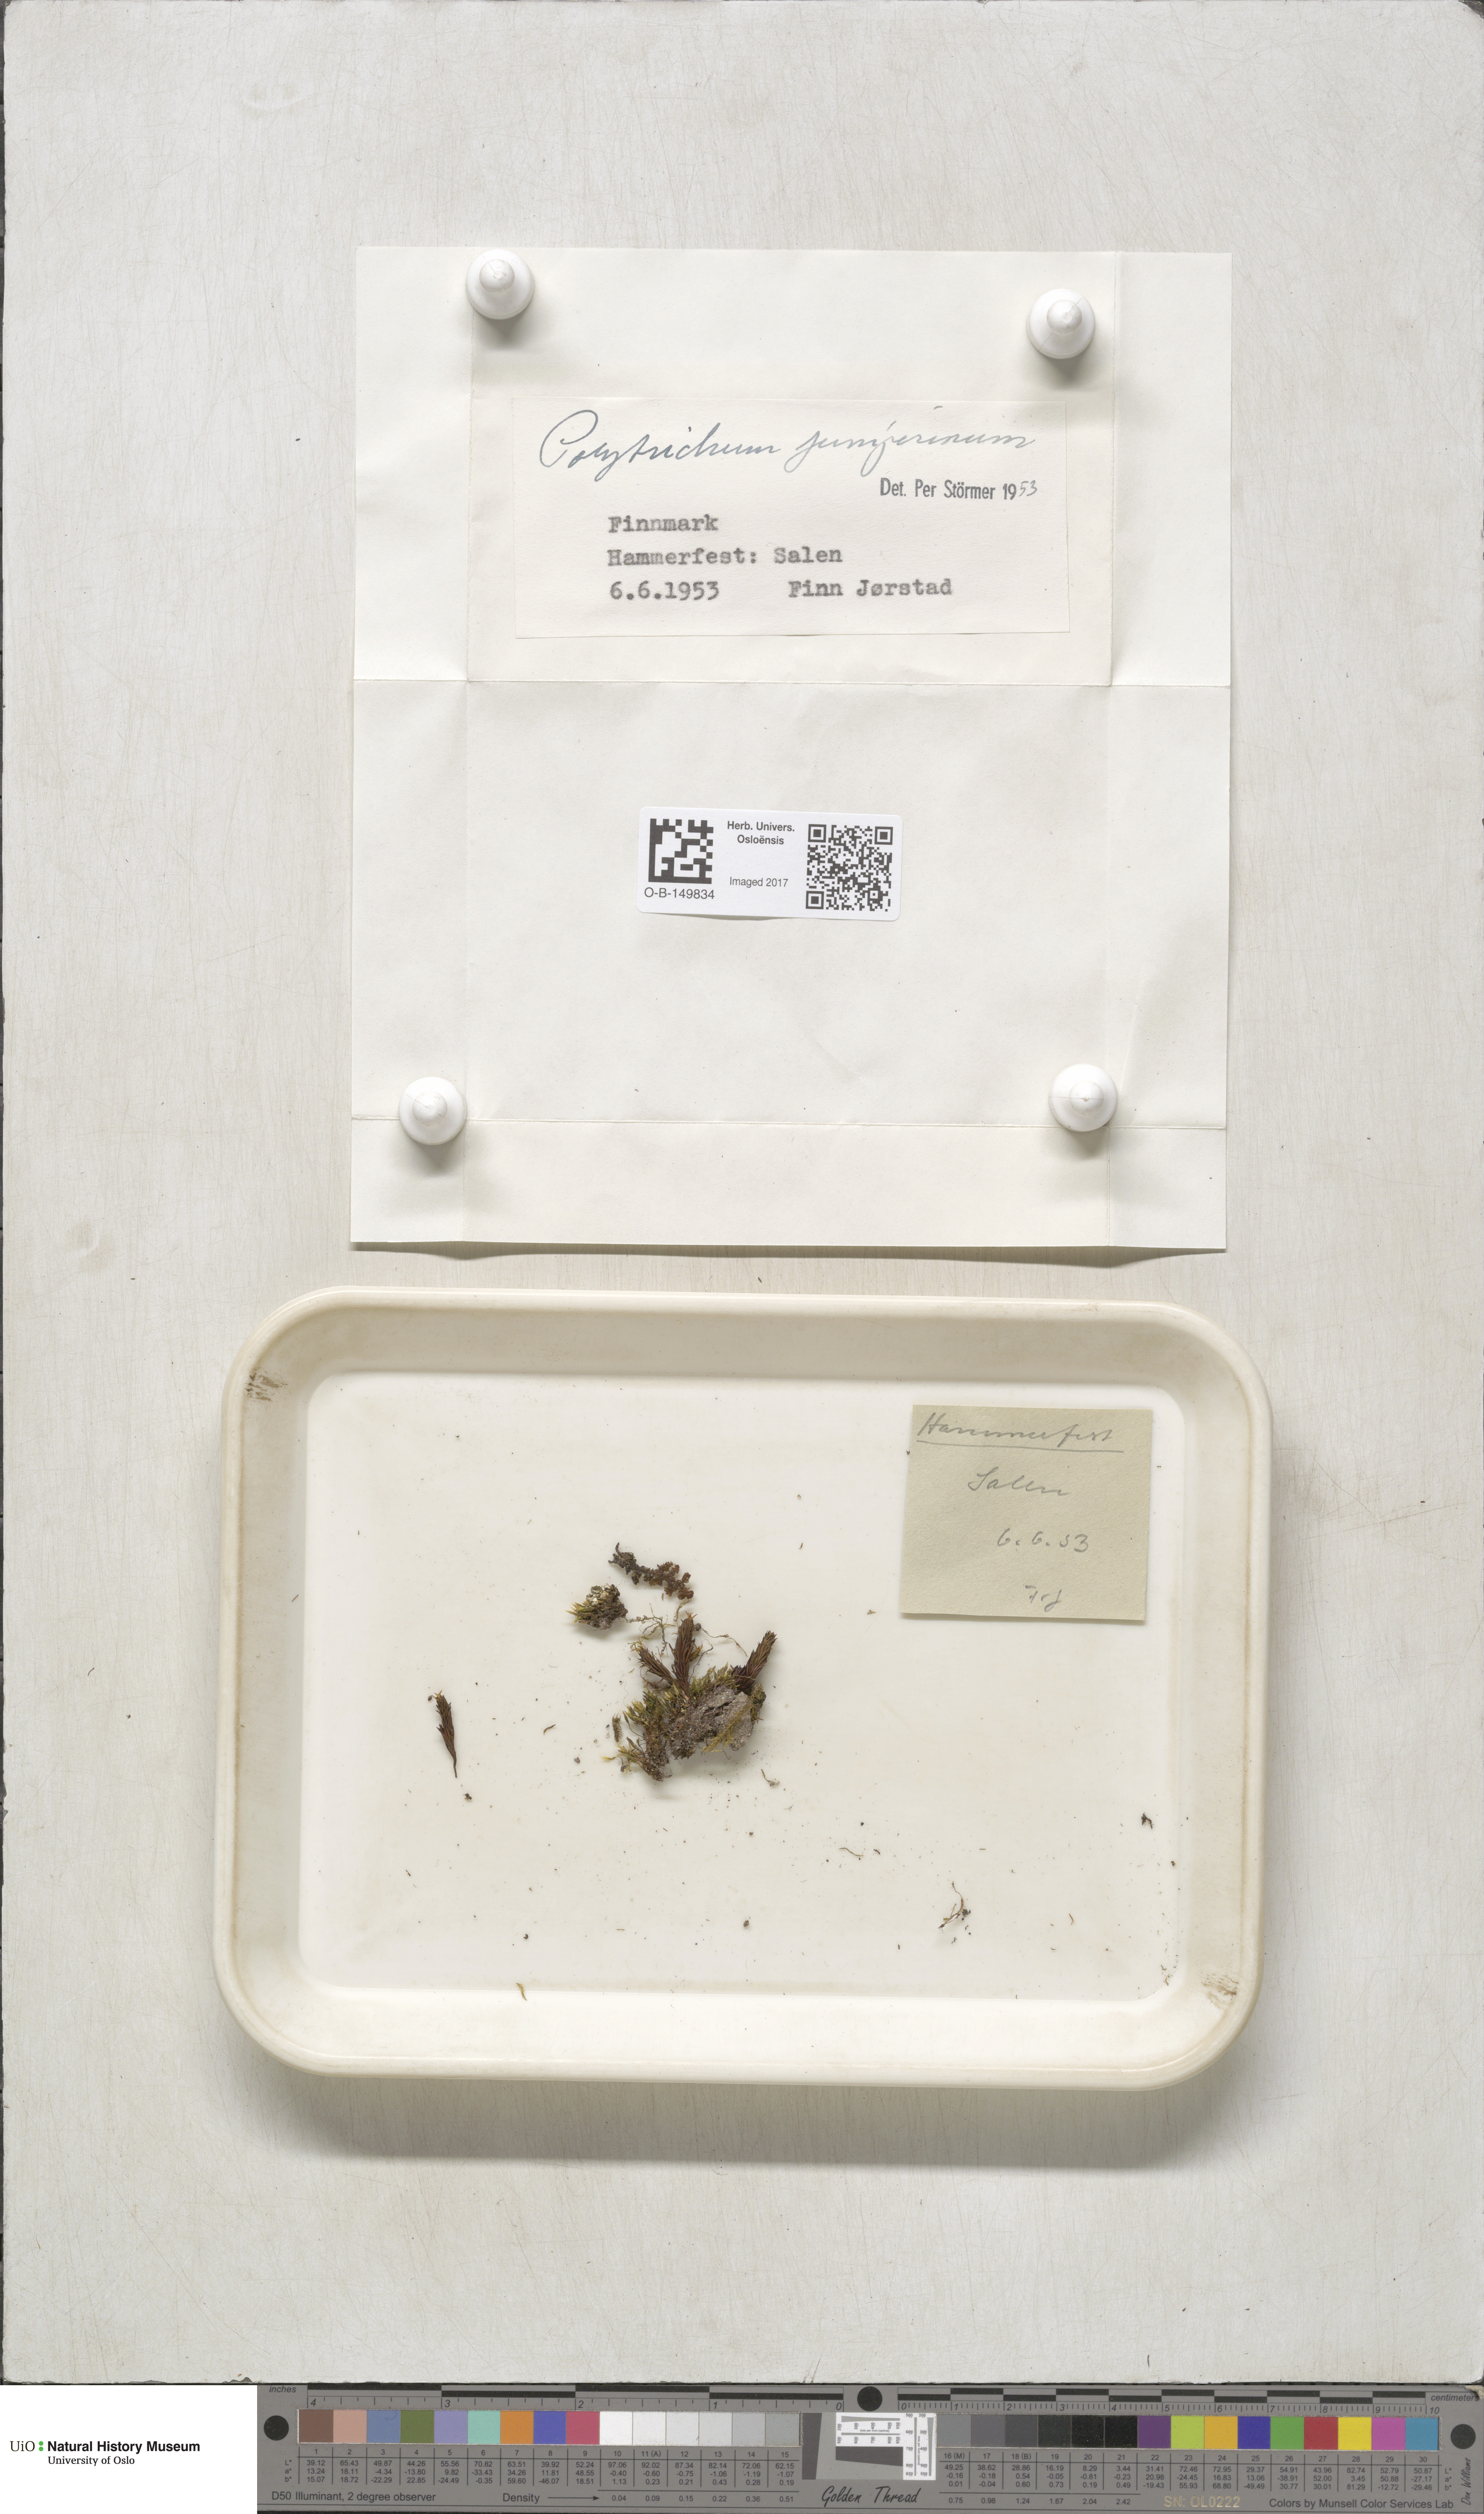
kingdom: Plantae
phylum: Bryophyta
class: Polytrichopsida
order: Polytrichales
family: Polytrichaceae
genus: Polytrichum
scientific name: Polytrichum juniperinum
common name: Juniper haircap moss
